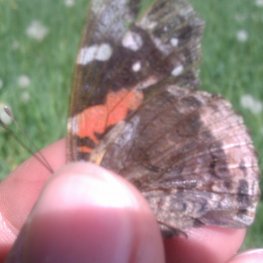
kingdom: Animalia
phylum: Arthropoda
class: Insecta
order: Lepidoptera
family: Nymphalidae
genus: Vanessa
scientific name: Vanessa atalanta
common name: Red Admiral
